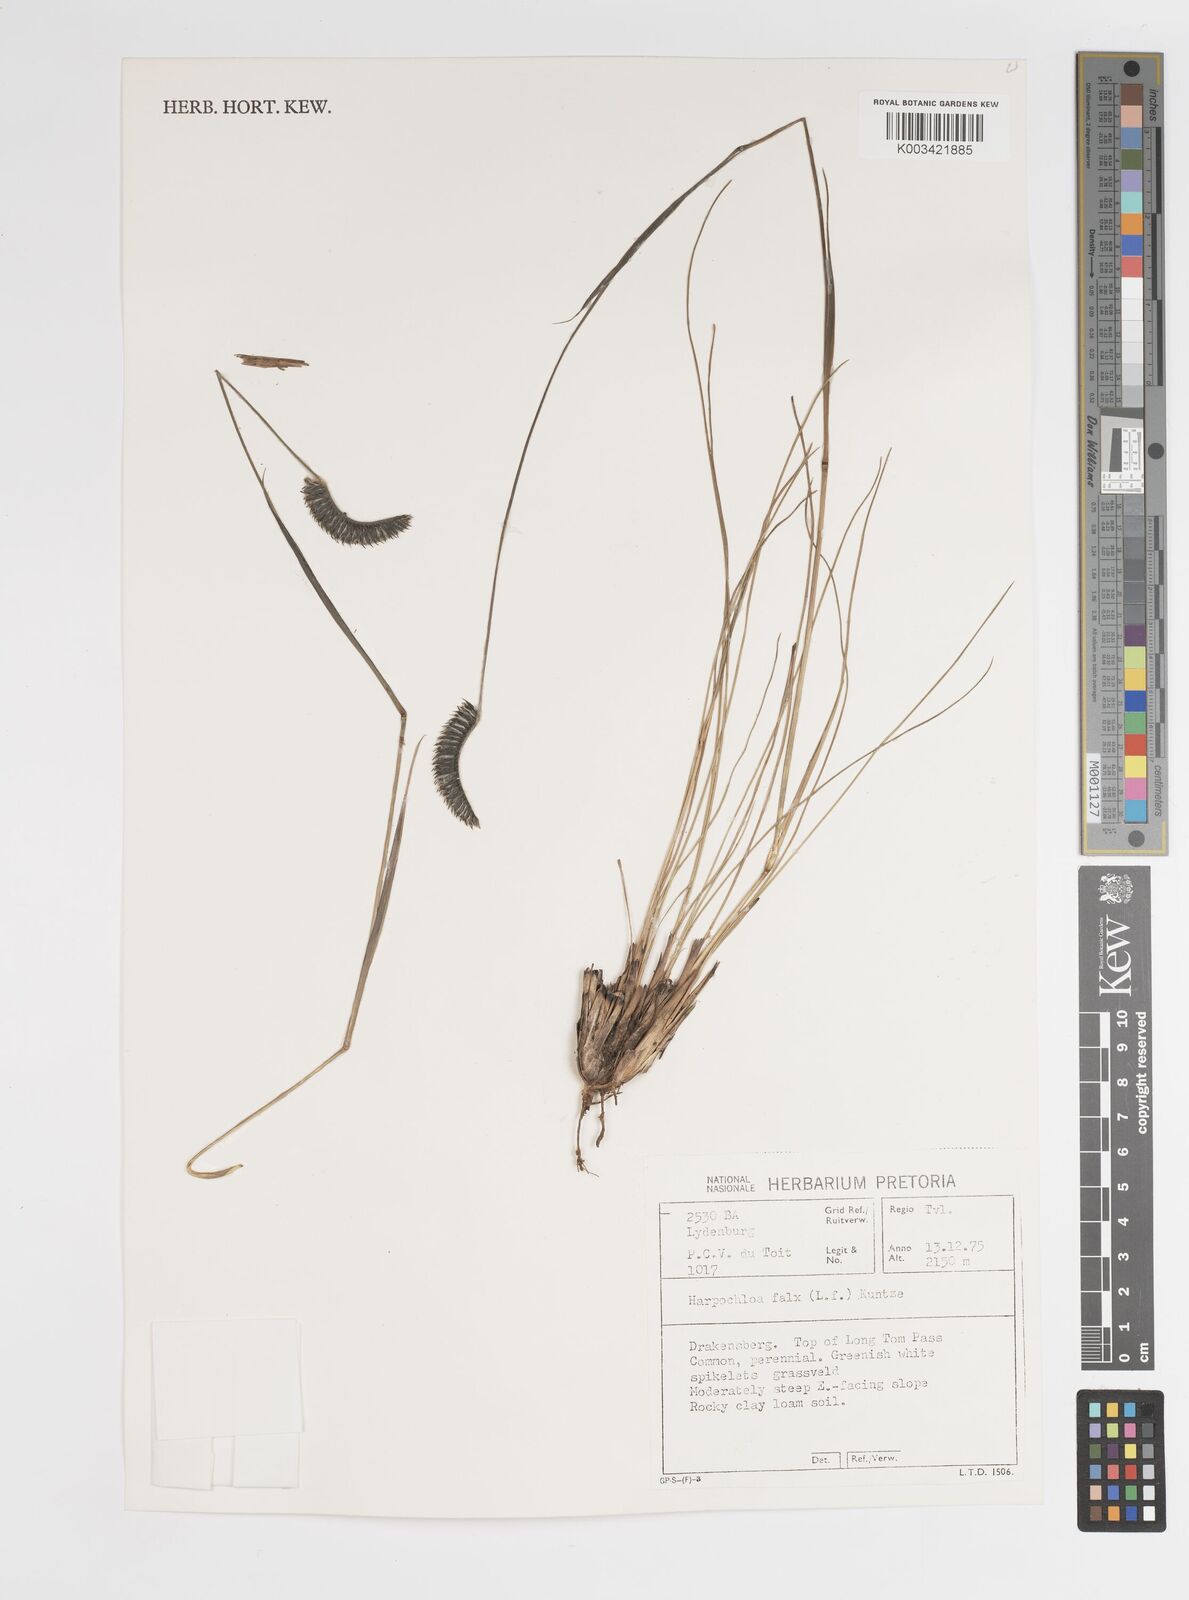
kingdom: Plantae
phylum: Tracheophyta
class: Liliopsida
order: Poales
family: Poaceae
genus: Harpochloa
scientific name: Harpochloa falx
